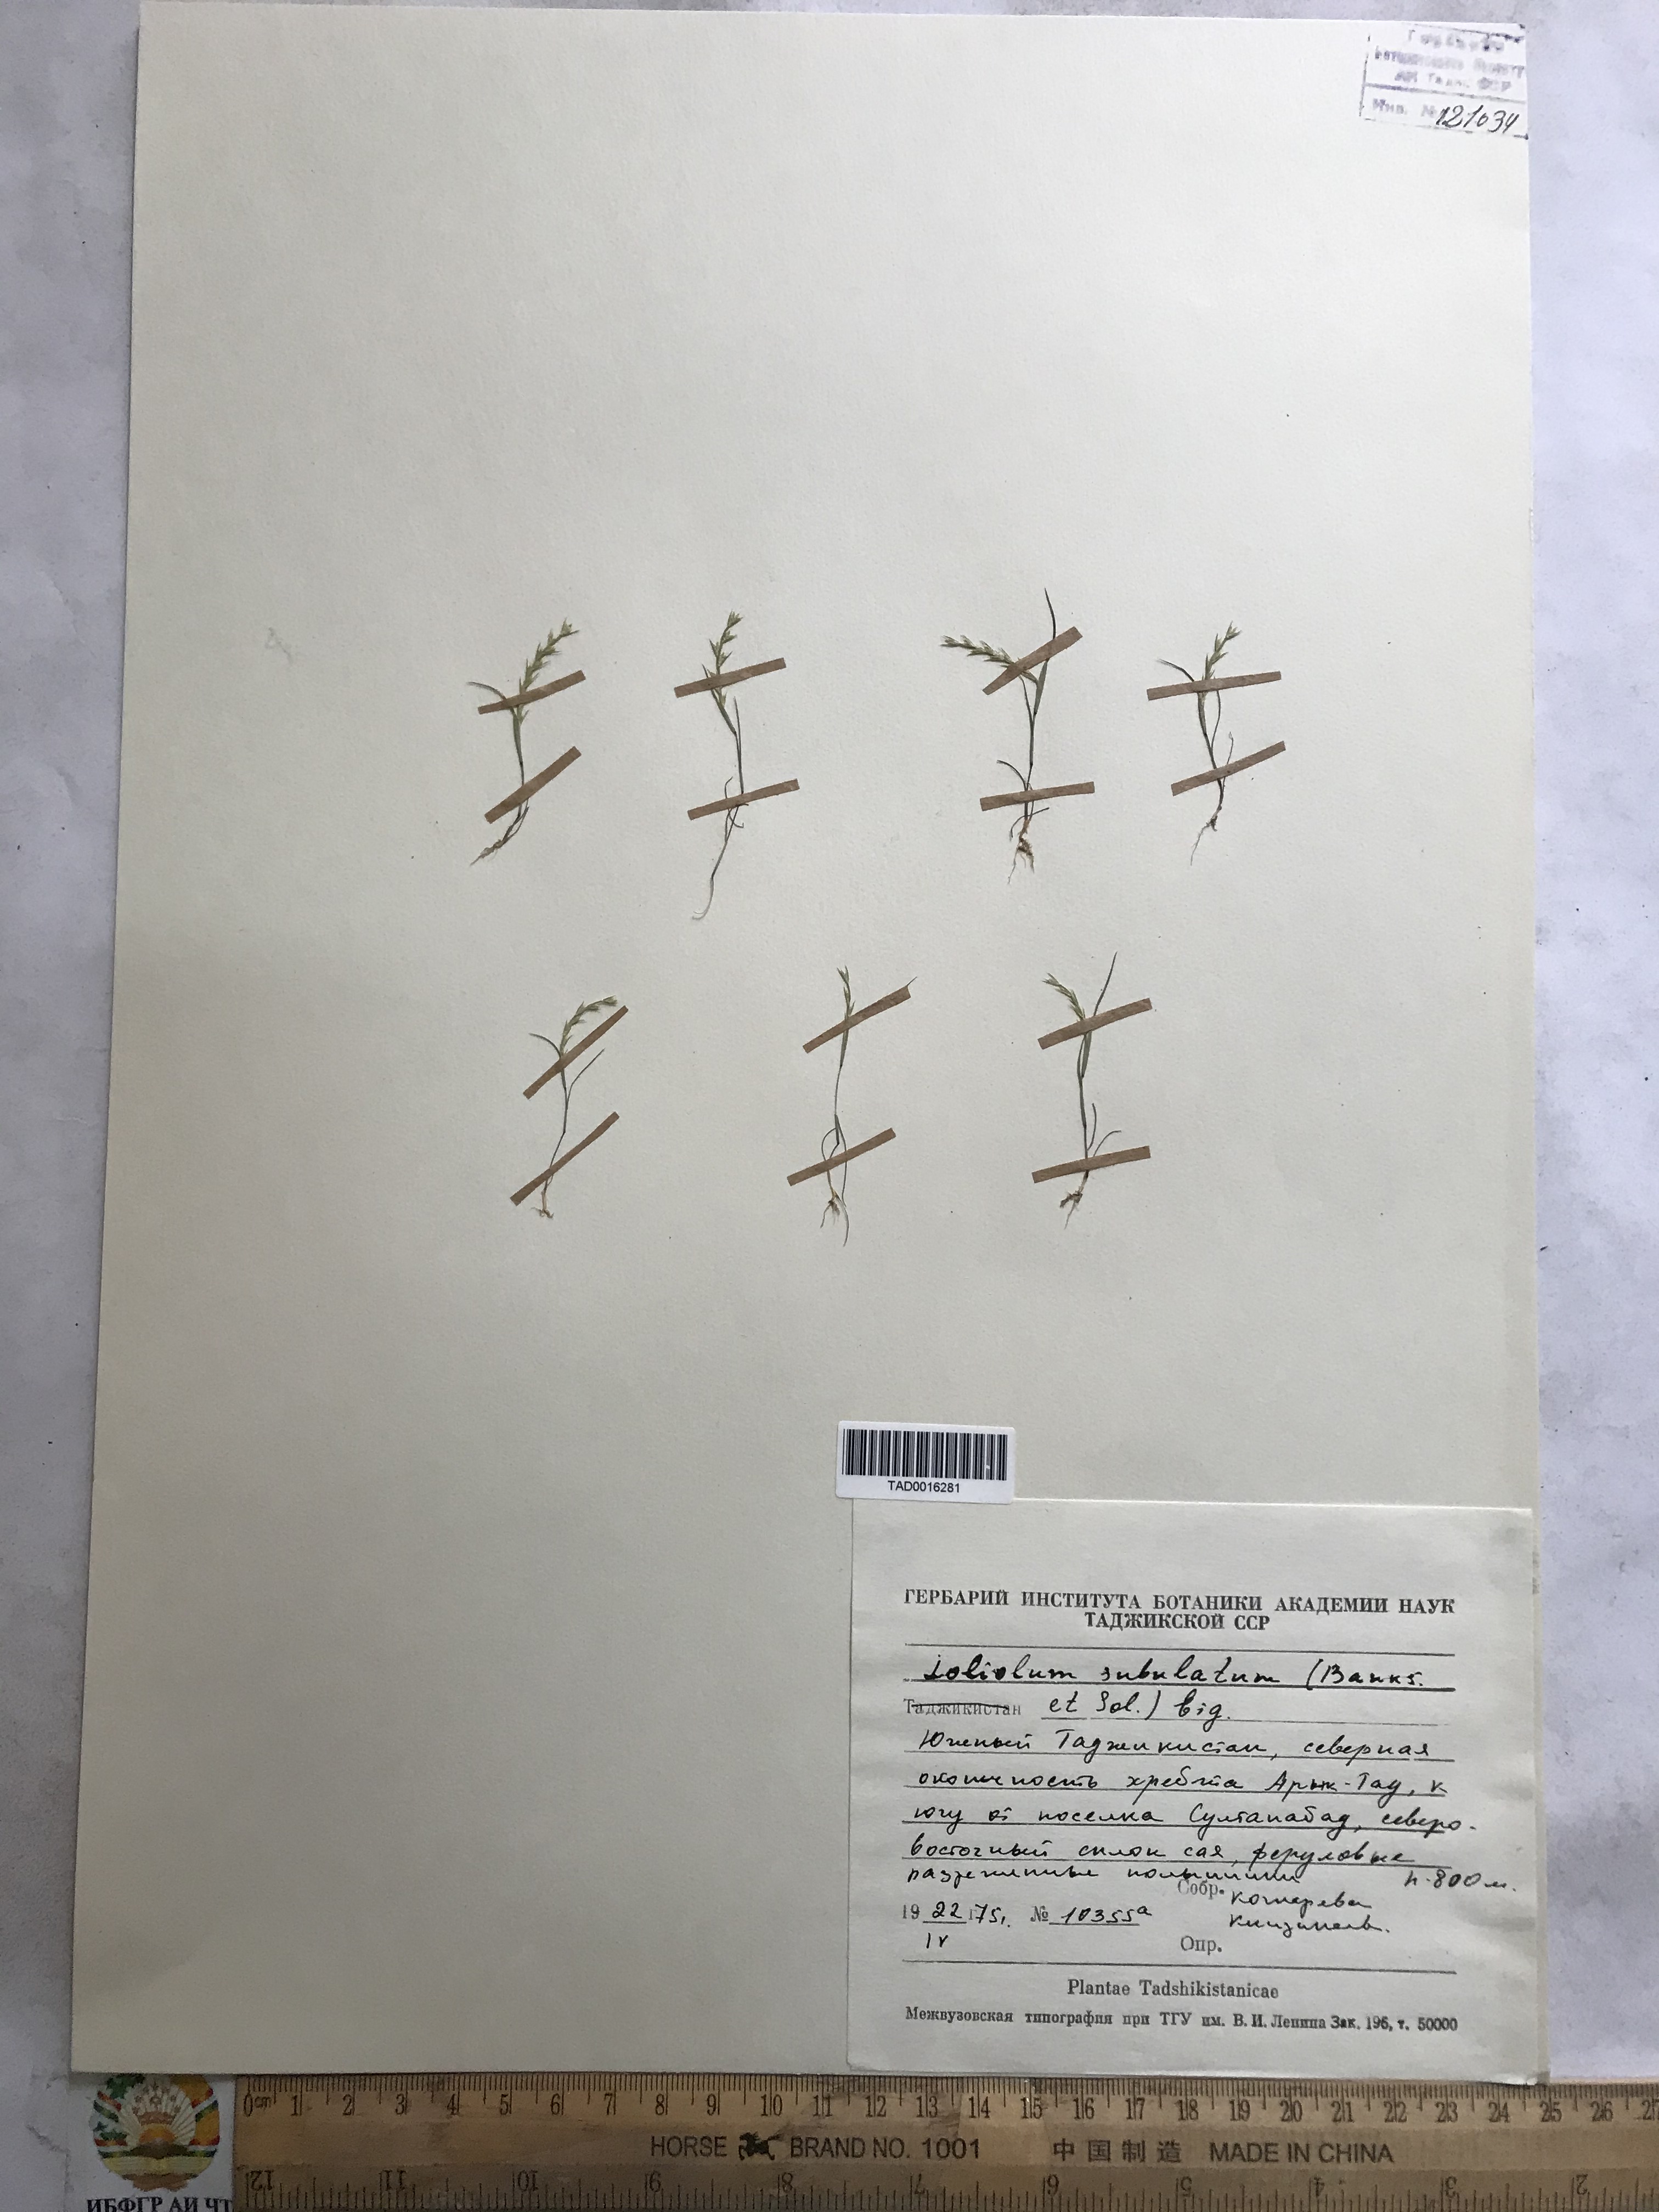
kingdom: Plantae
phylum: Tracheophyta
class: Liliopsida
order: Poales
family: Poaceae
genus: Festuca
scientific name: Festuca orientalis
